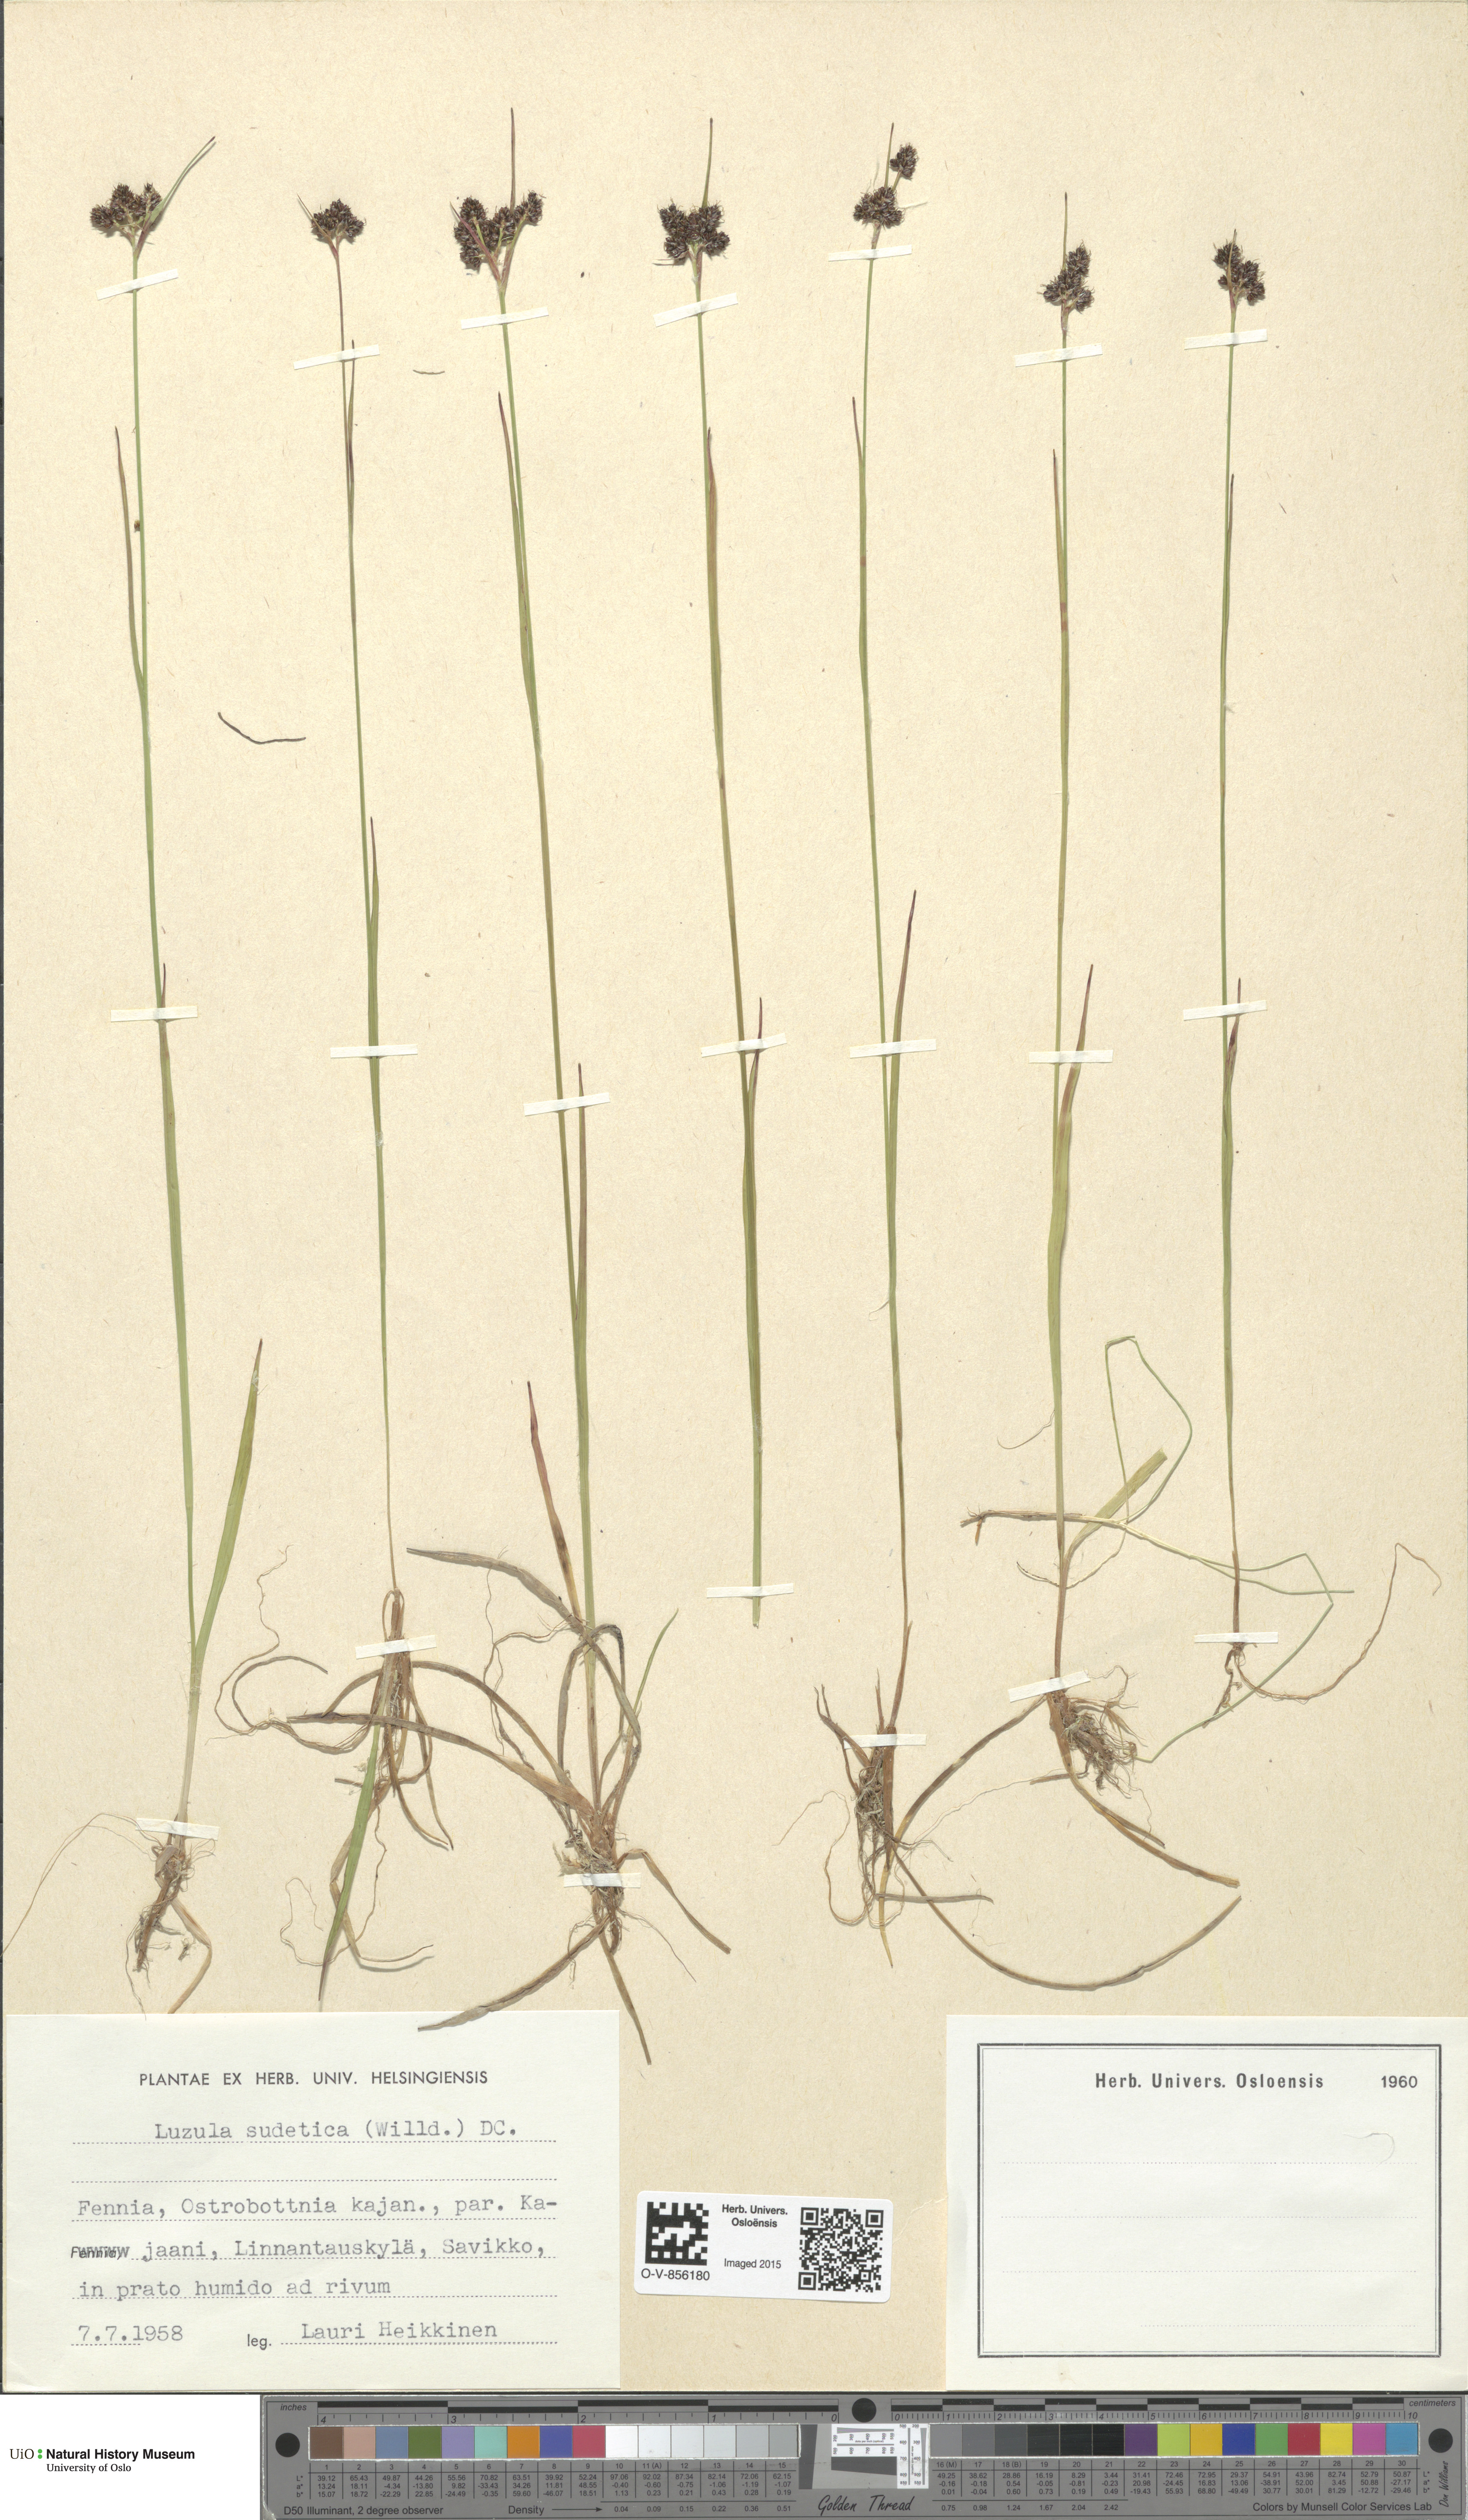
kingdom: Plantae
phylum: Tracheophyta
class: Liliopsida
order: Poales
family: Juncaceae
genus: Luzula
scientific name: Luzula sudetica
